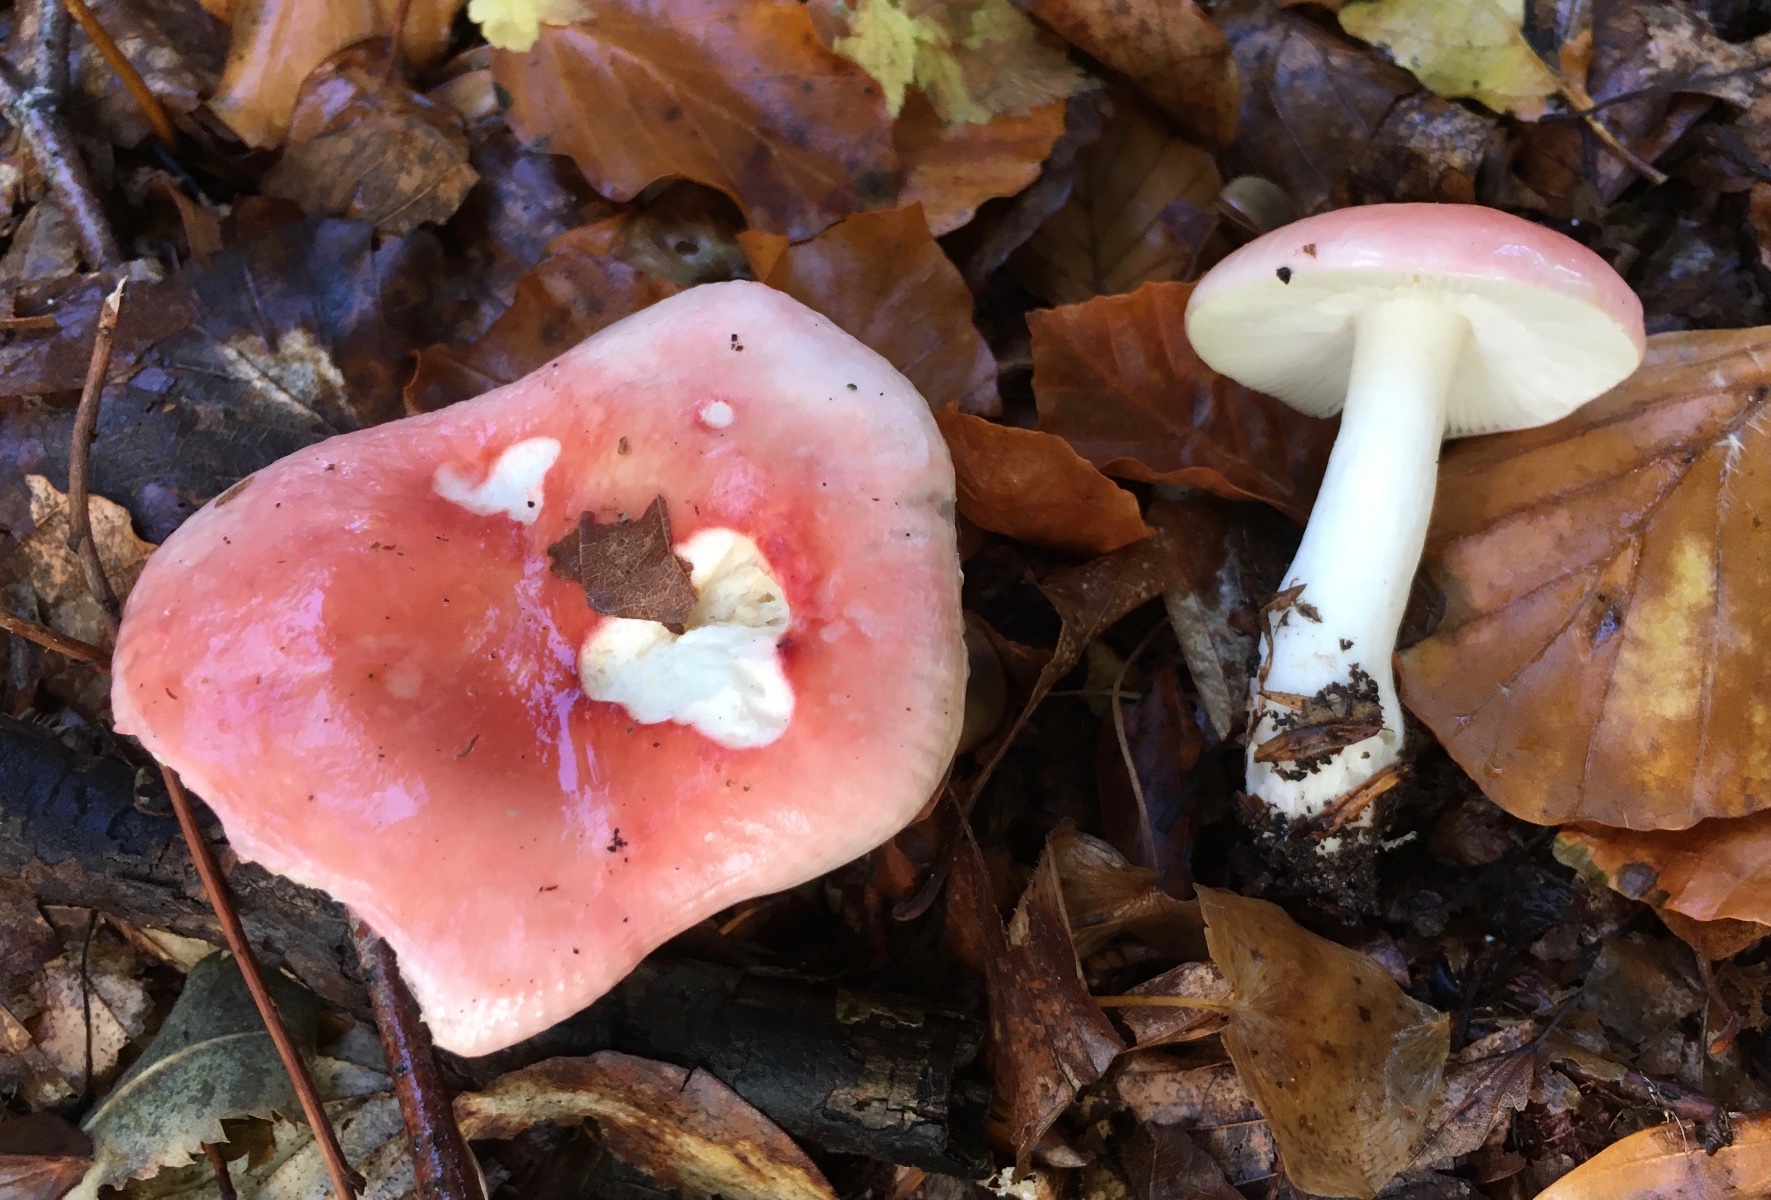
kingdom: Fungi
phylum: Basidiomycota
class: Agaricomycetes
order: Russulales
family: Russulaceae
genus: Russula
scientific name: Russula nobilis
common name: lille gift-skørhat
